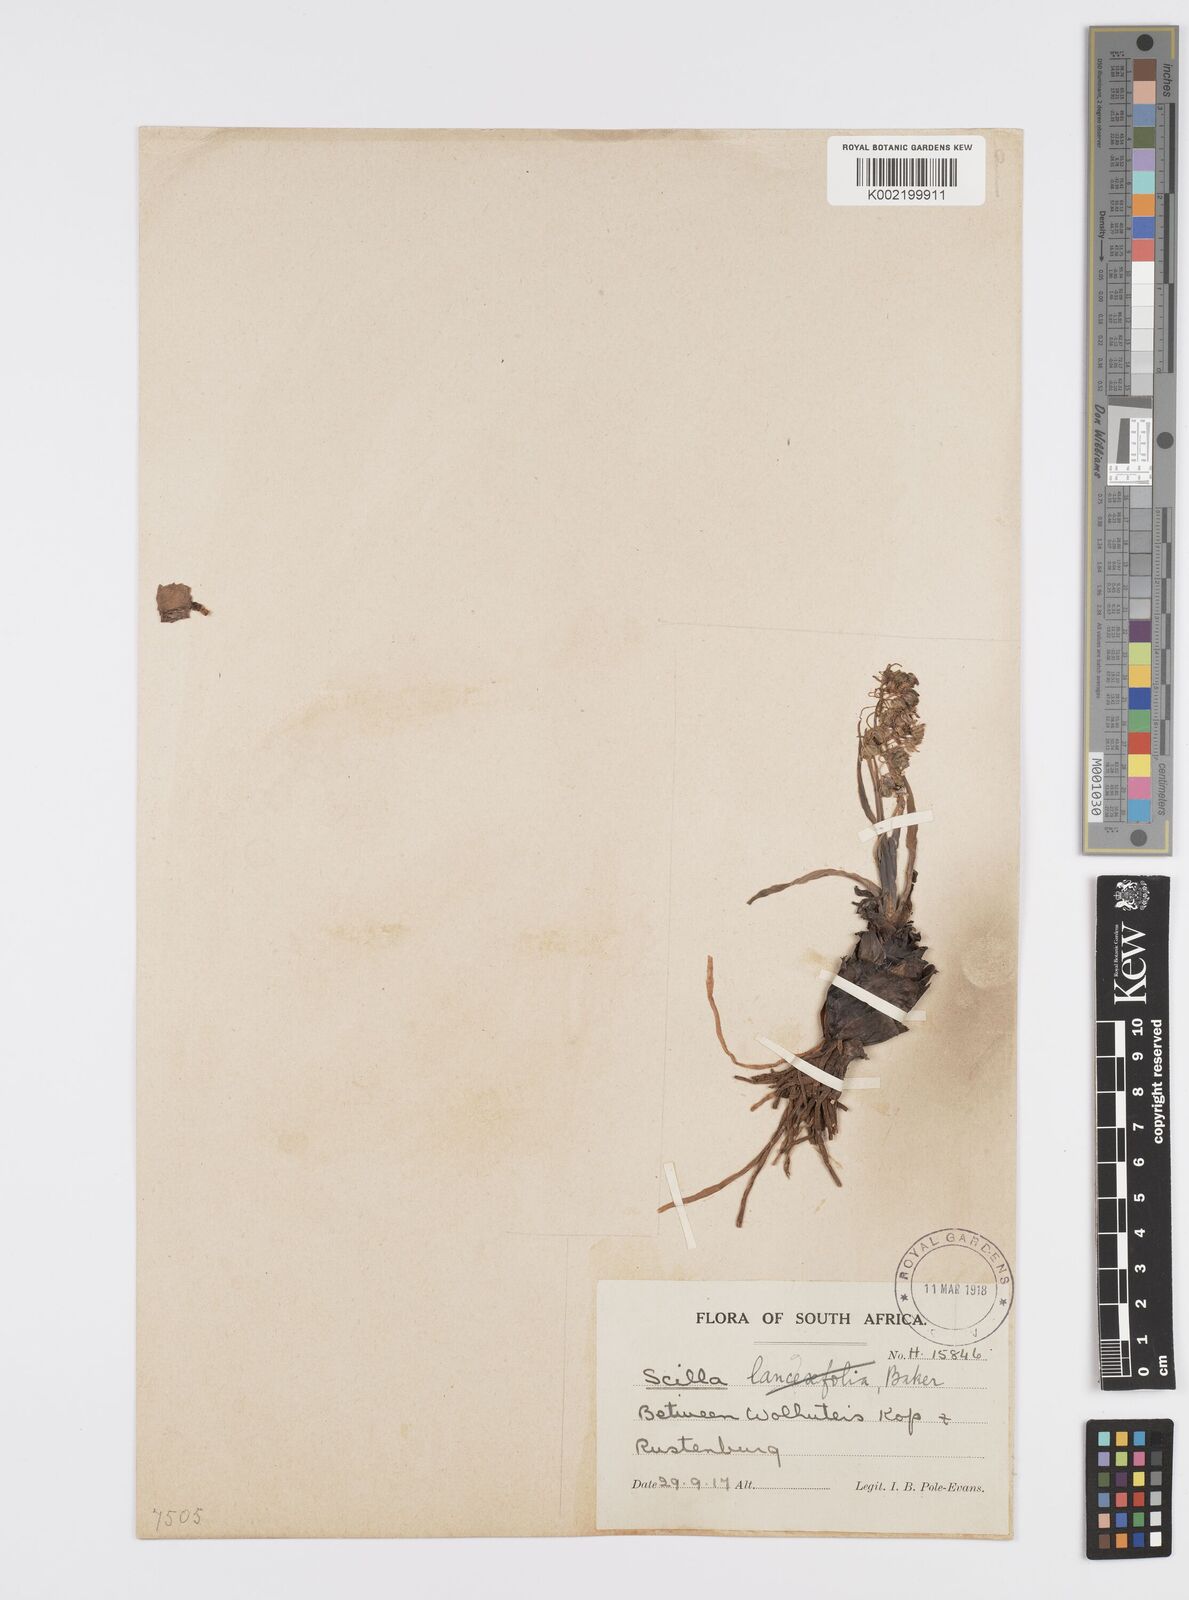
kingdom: Plantae
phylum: Tracheophyta
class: Liliopsida
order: Asparagales
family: Asparagaceae
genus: Ledebouria
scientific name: Ledebouria revoluta
